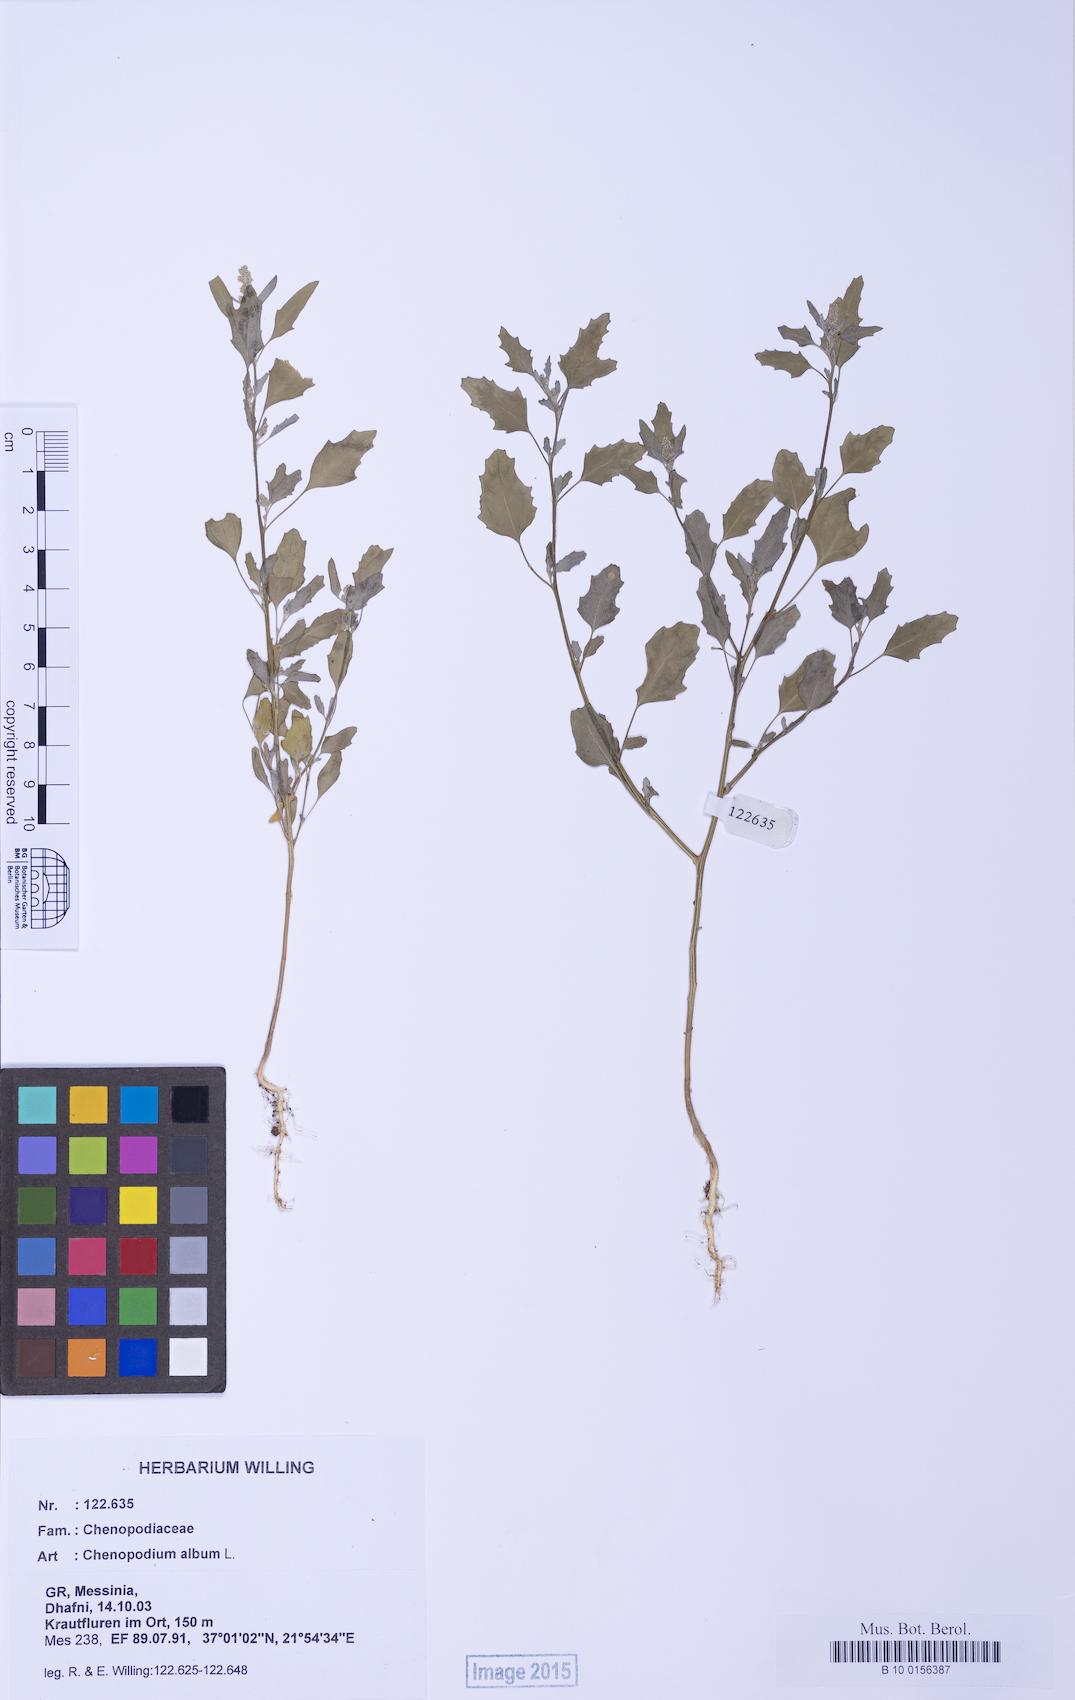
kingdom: Plantae
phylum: Tracheophyta
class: Magnoliopsida
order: Caryophyllales
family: Amaranthaceae
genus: Chenopodium
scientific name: Chenopodium album
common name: Fat-hen
